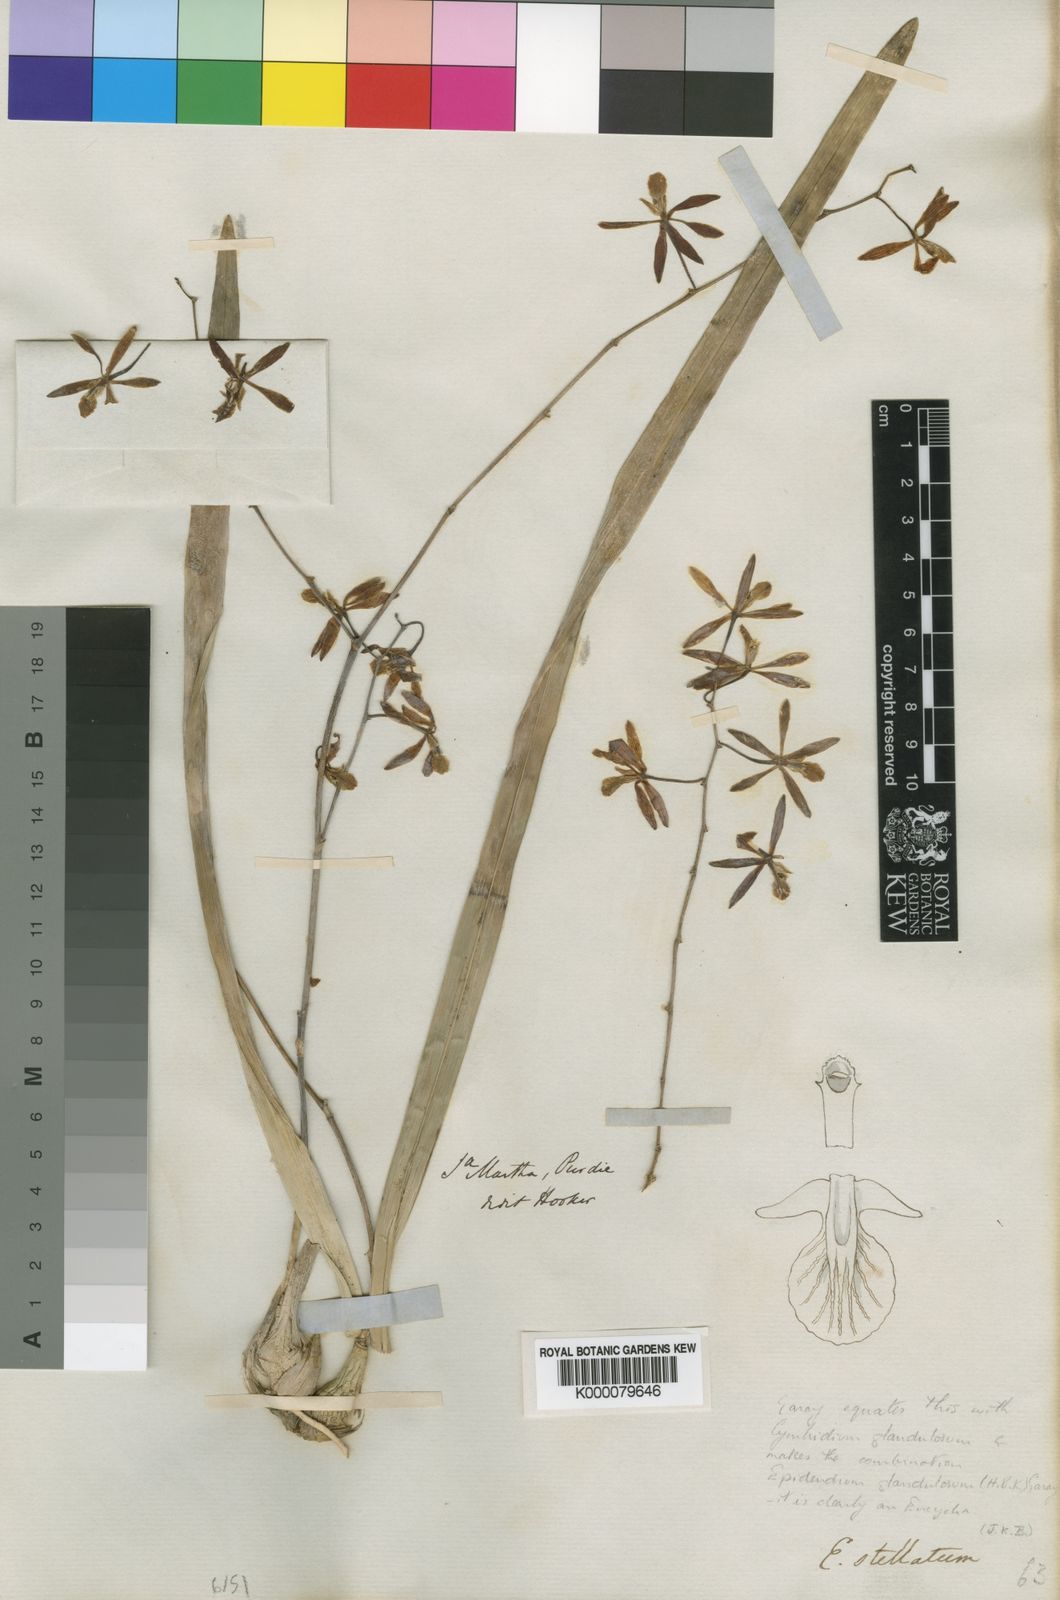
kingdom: Plantae
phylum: Tracheophyta
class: Liliopsida
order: Asparagales
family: Orchidaceae
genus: Encyclia
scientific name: Encyclia stellata
